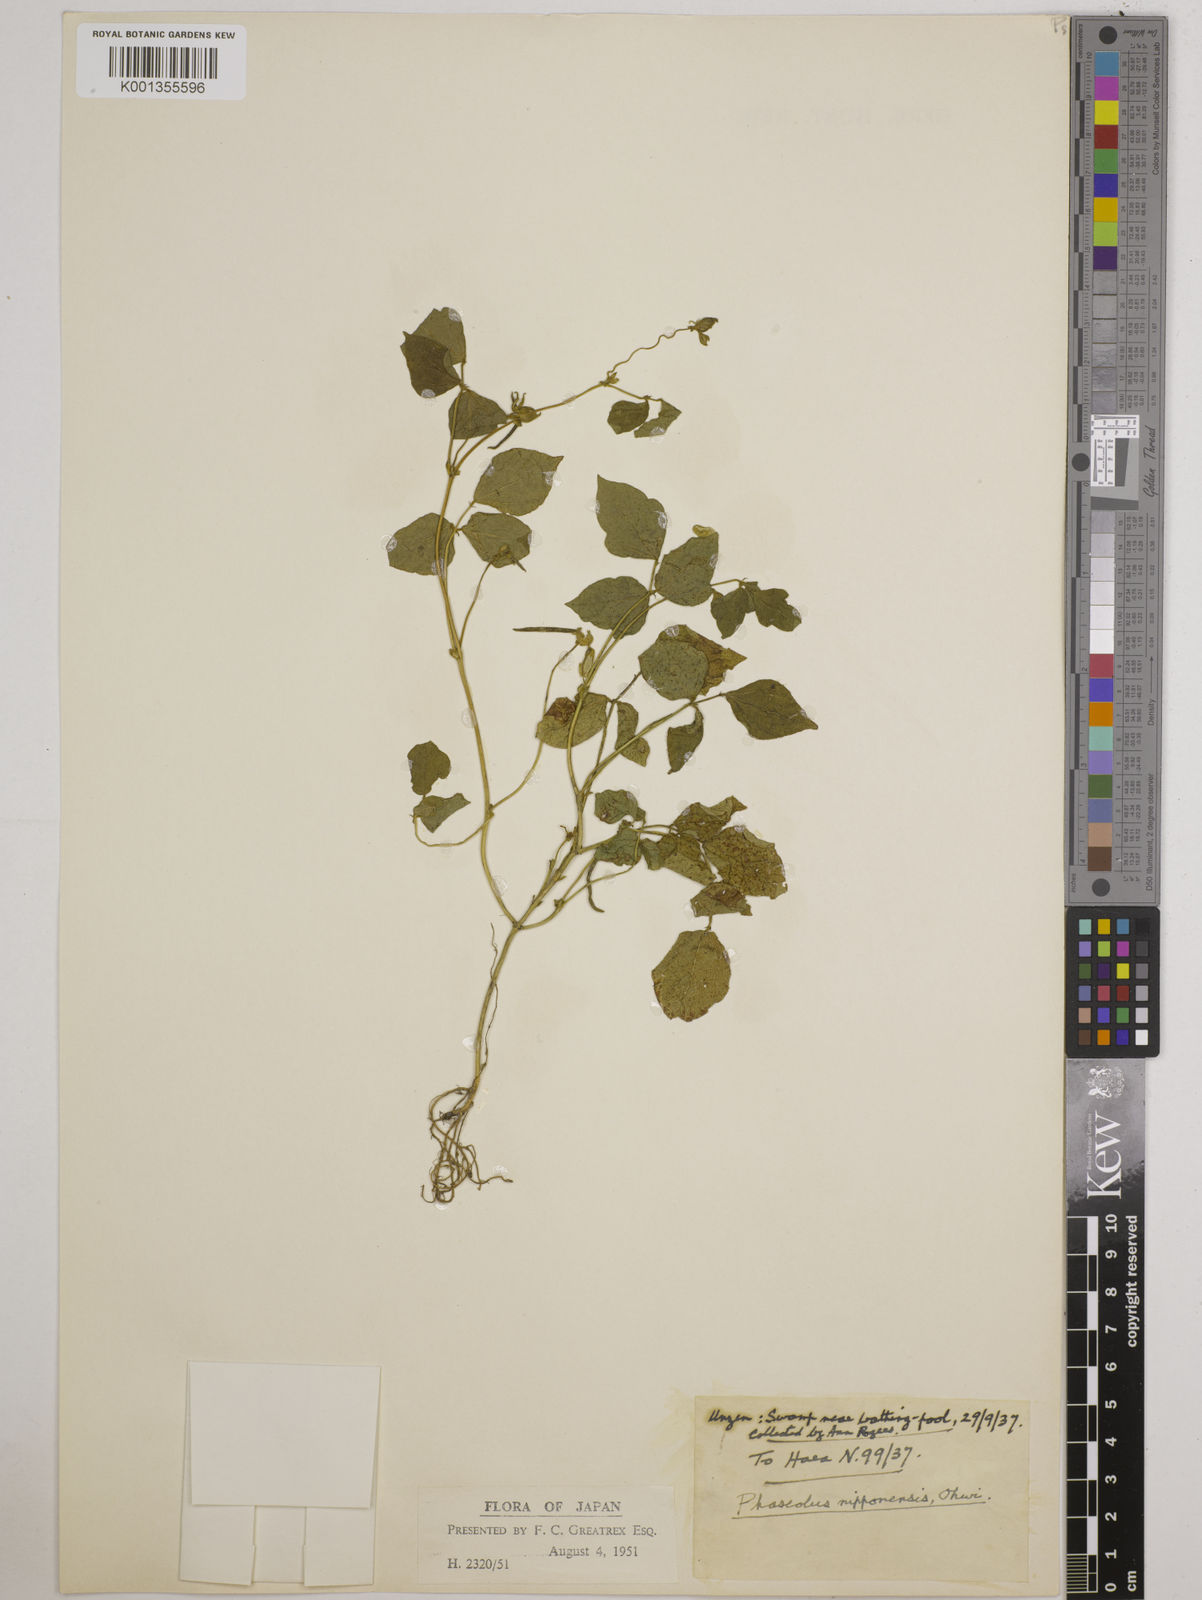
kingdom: Plantae
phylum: Tracheophyta
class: Magnoliopsida
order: Fabales
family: Fabaceae
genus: Vigna
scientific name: Vigna
